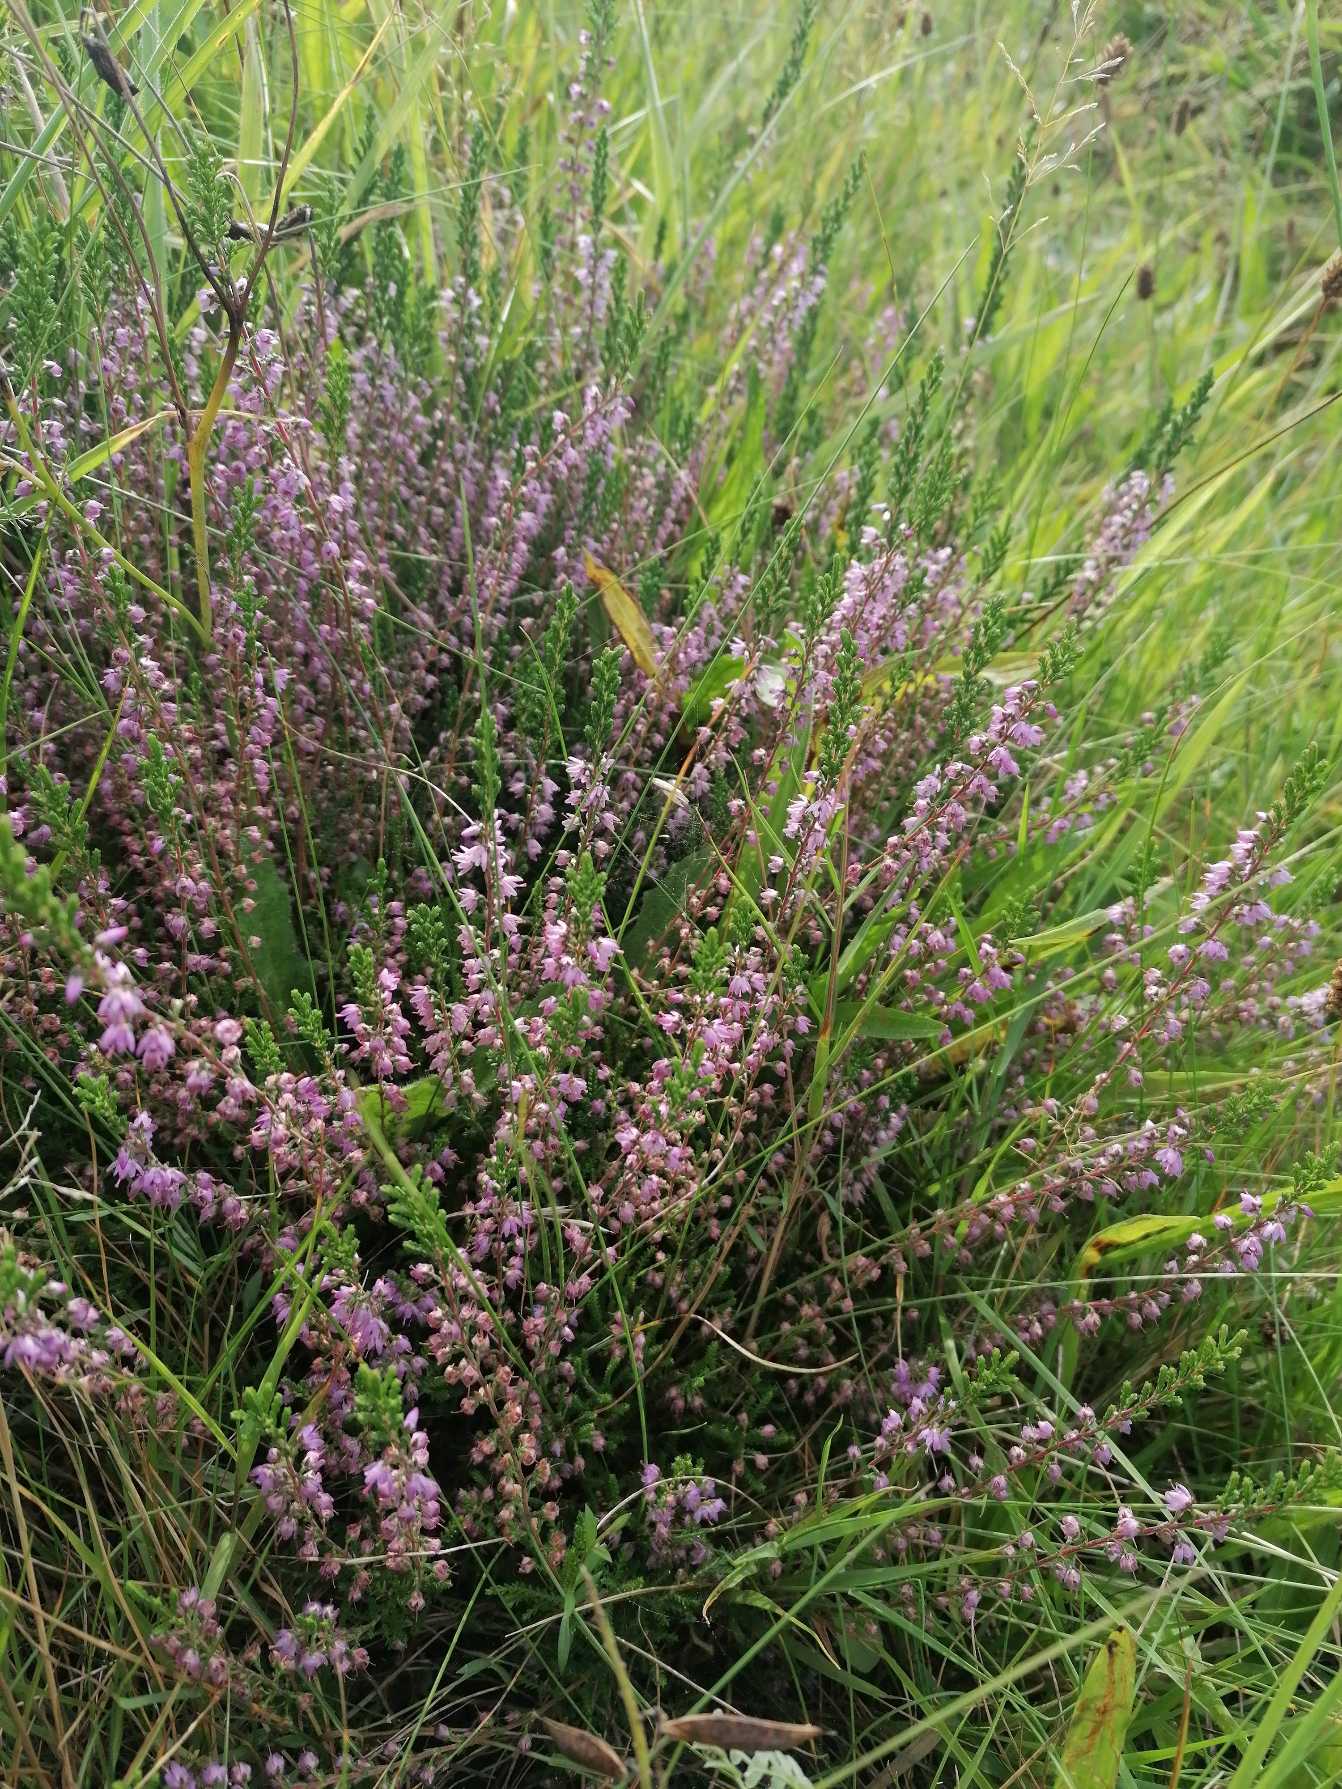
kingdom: Plantae
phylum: Tracheophyta
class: Magnoliopsida
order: Ericales
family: Ericaceae
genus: Calluna
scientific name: Calluna vulgaris
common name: Hedelyng
